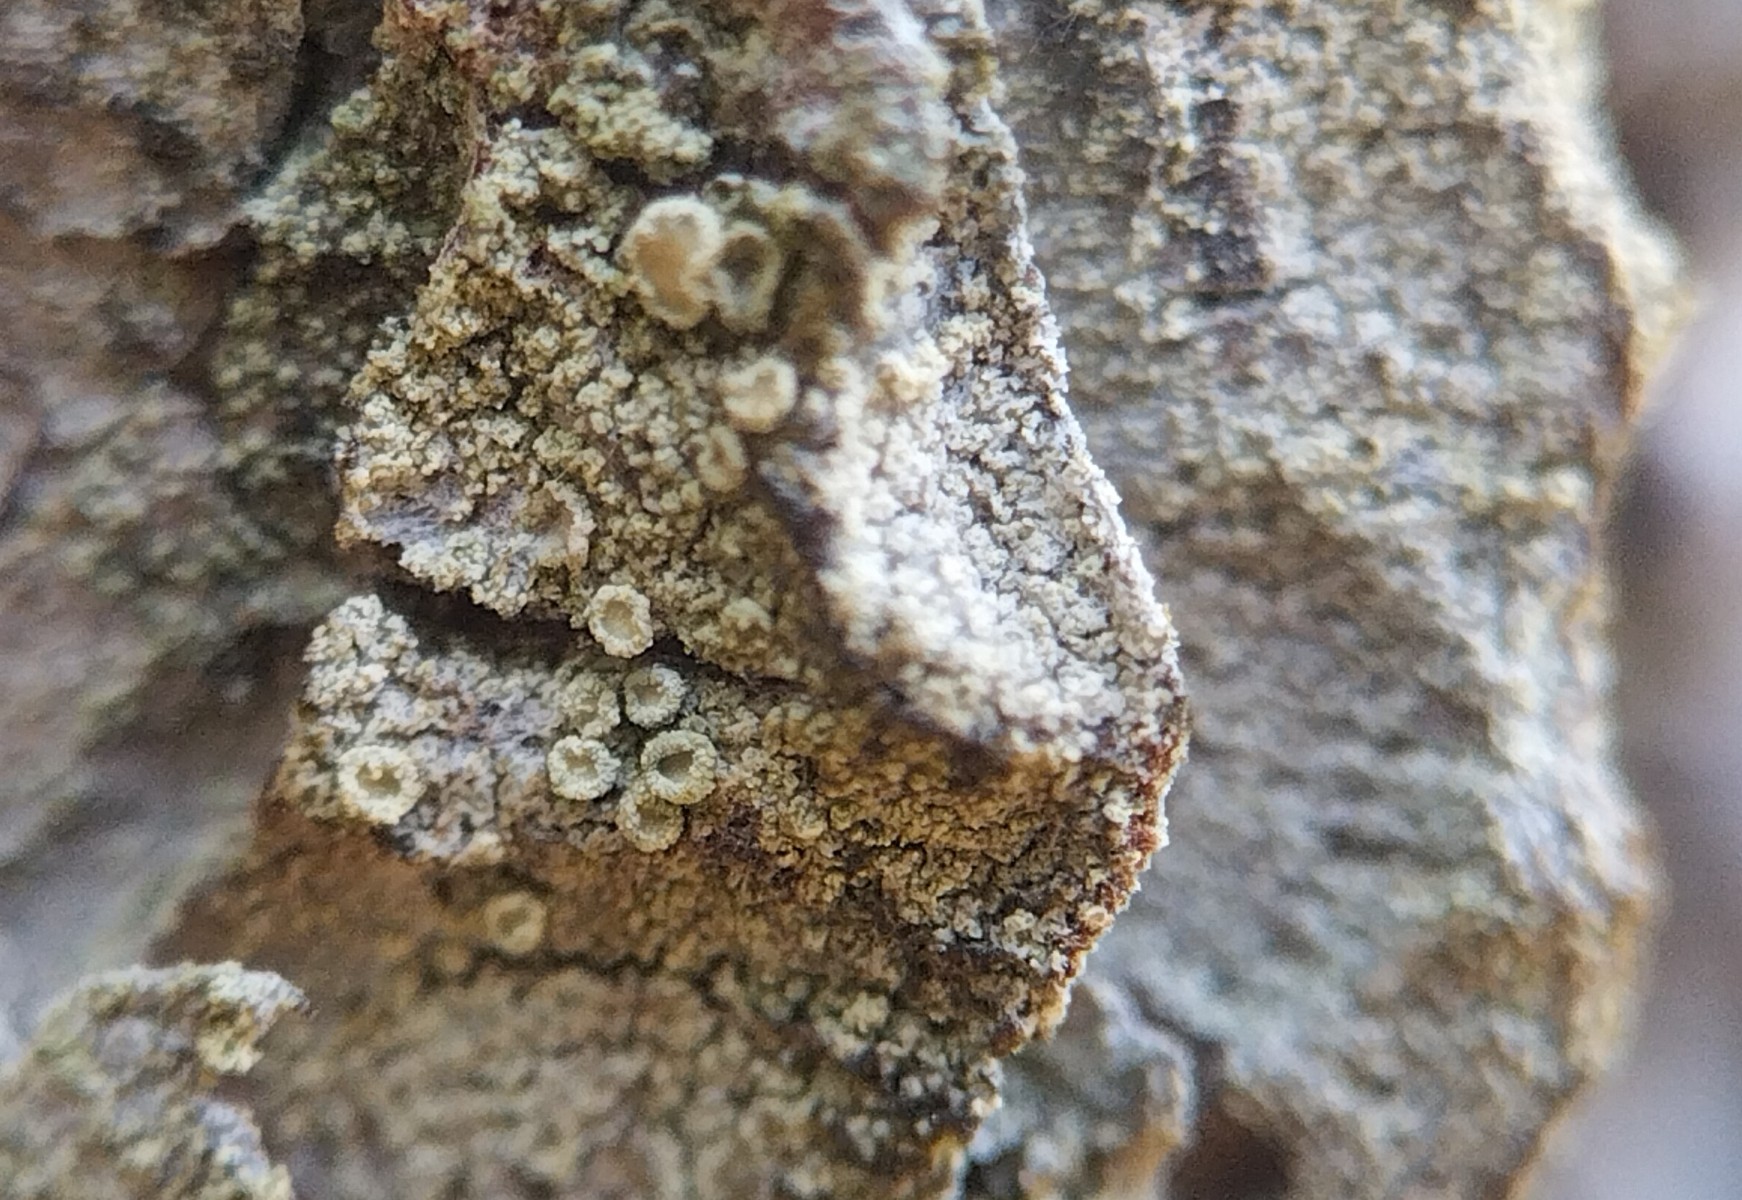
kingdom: Fungi
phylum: Ascomycota
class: Lecanoromycetes
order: Lecanorales
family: Lecanoraceae
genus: Straminella
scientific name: Straminella conizaeoides
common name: by-kantskivelav
